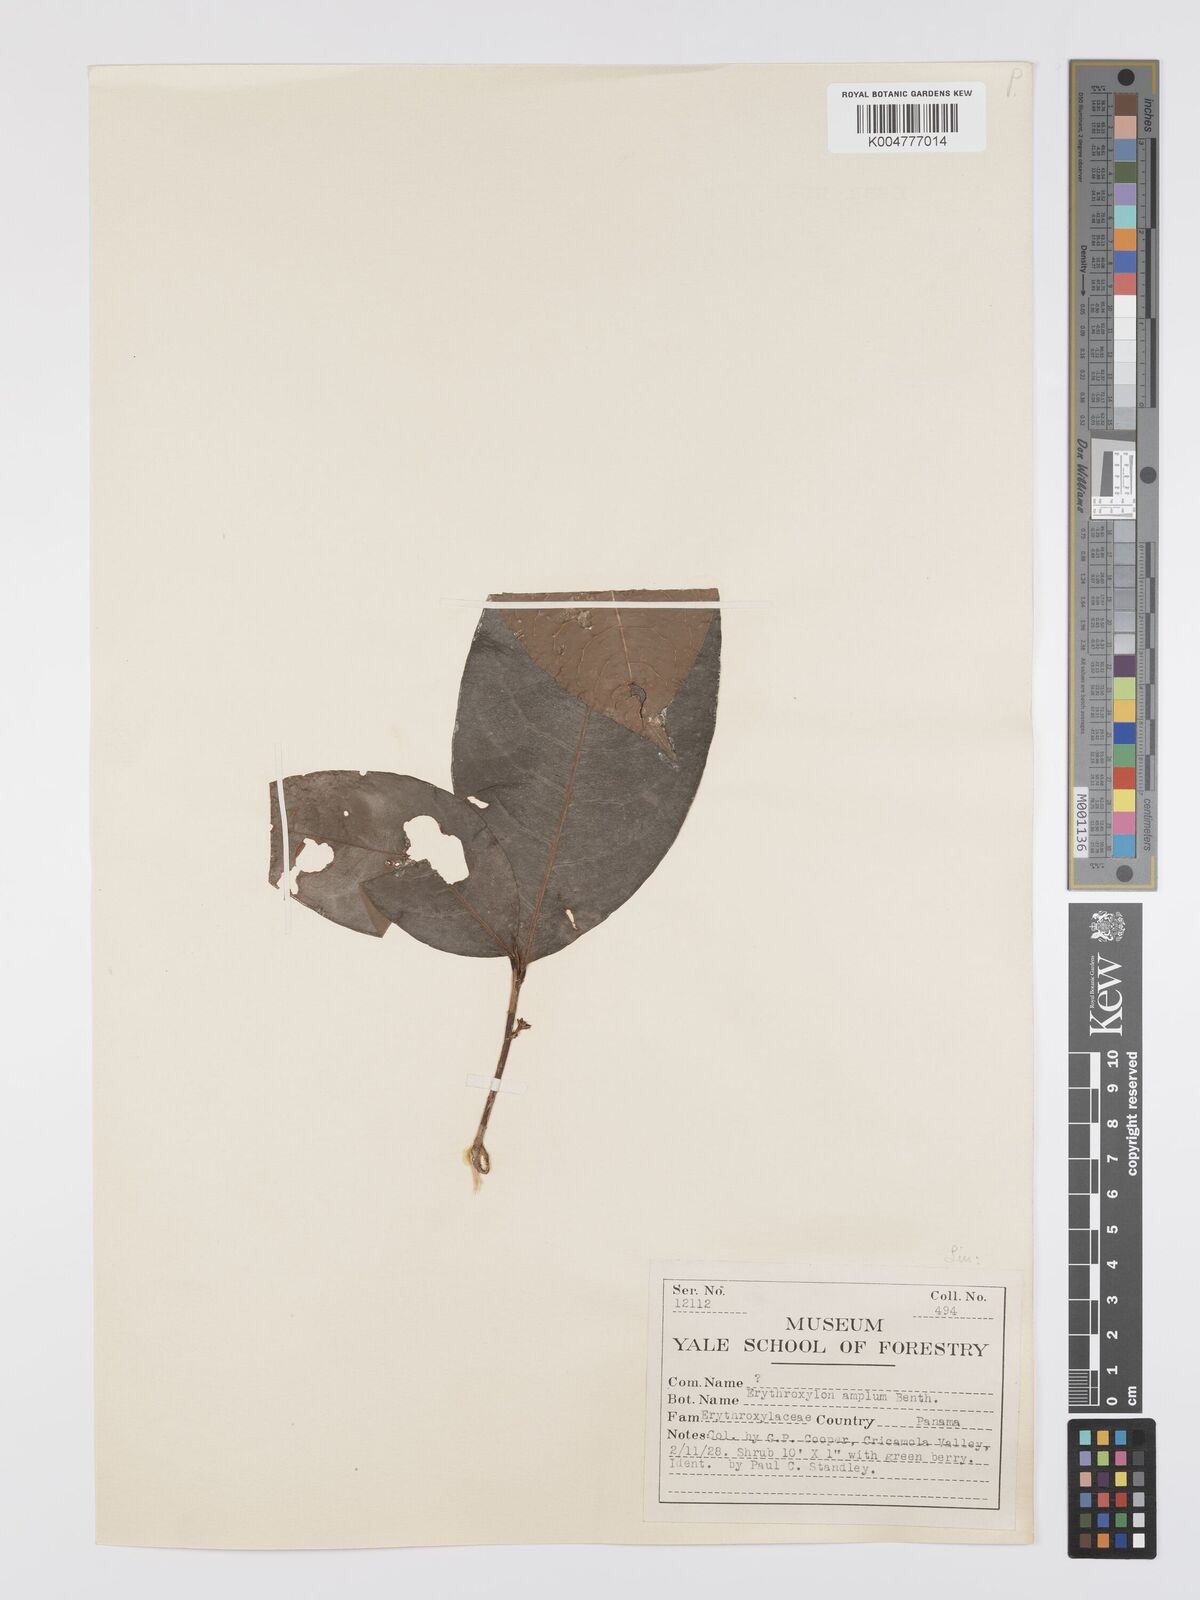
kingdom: Plantae
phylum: Tracheophyta
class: Magnoliopsida
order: Malpighiales
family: Erythroxylaceae
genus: Erythroxylum
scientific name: Erythroxylum amplum
